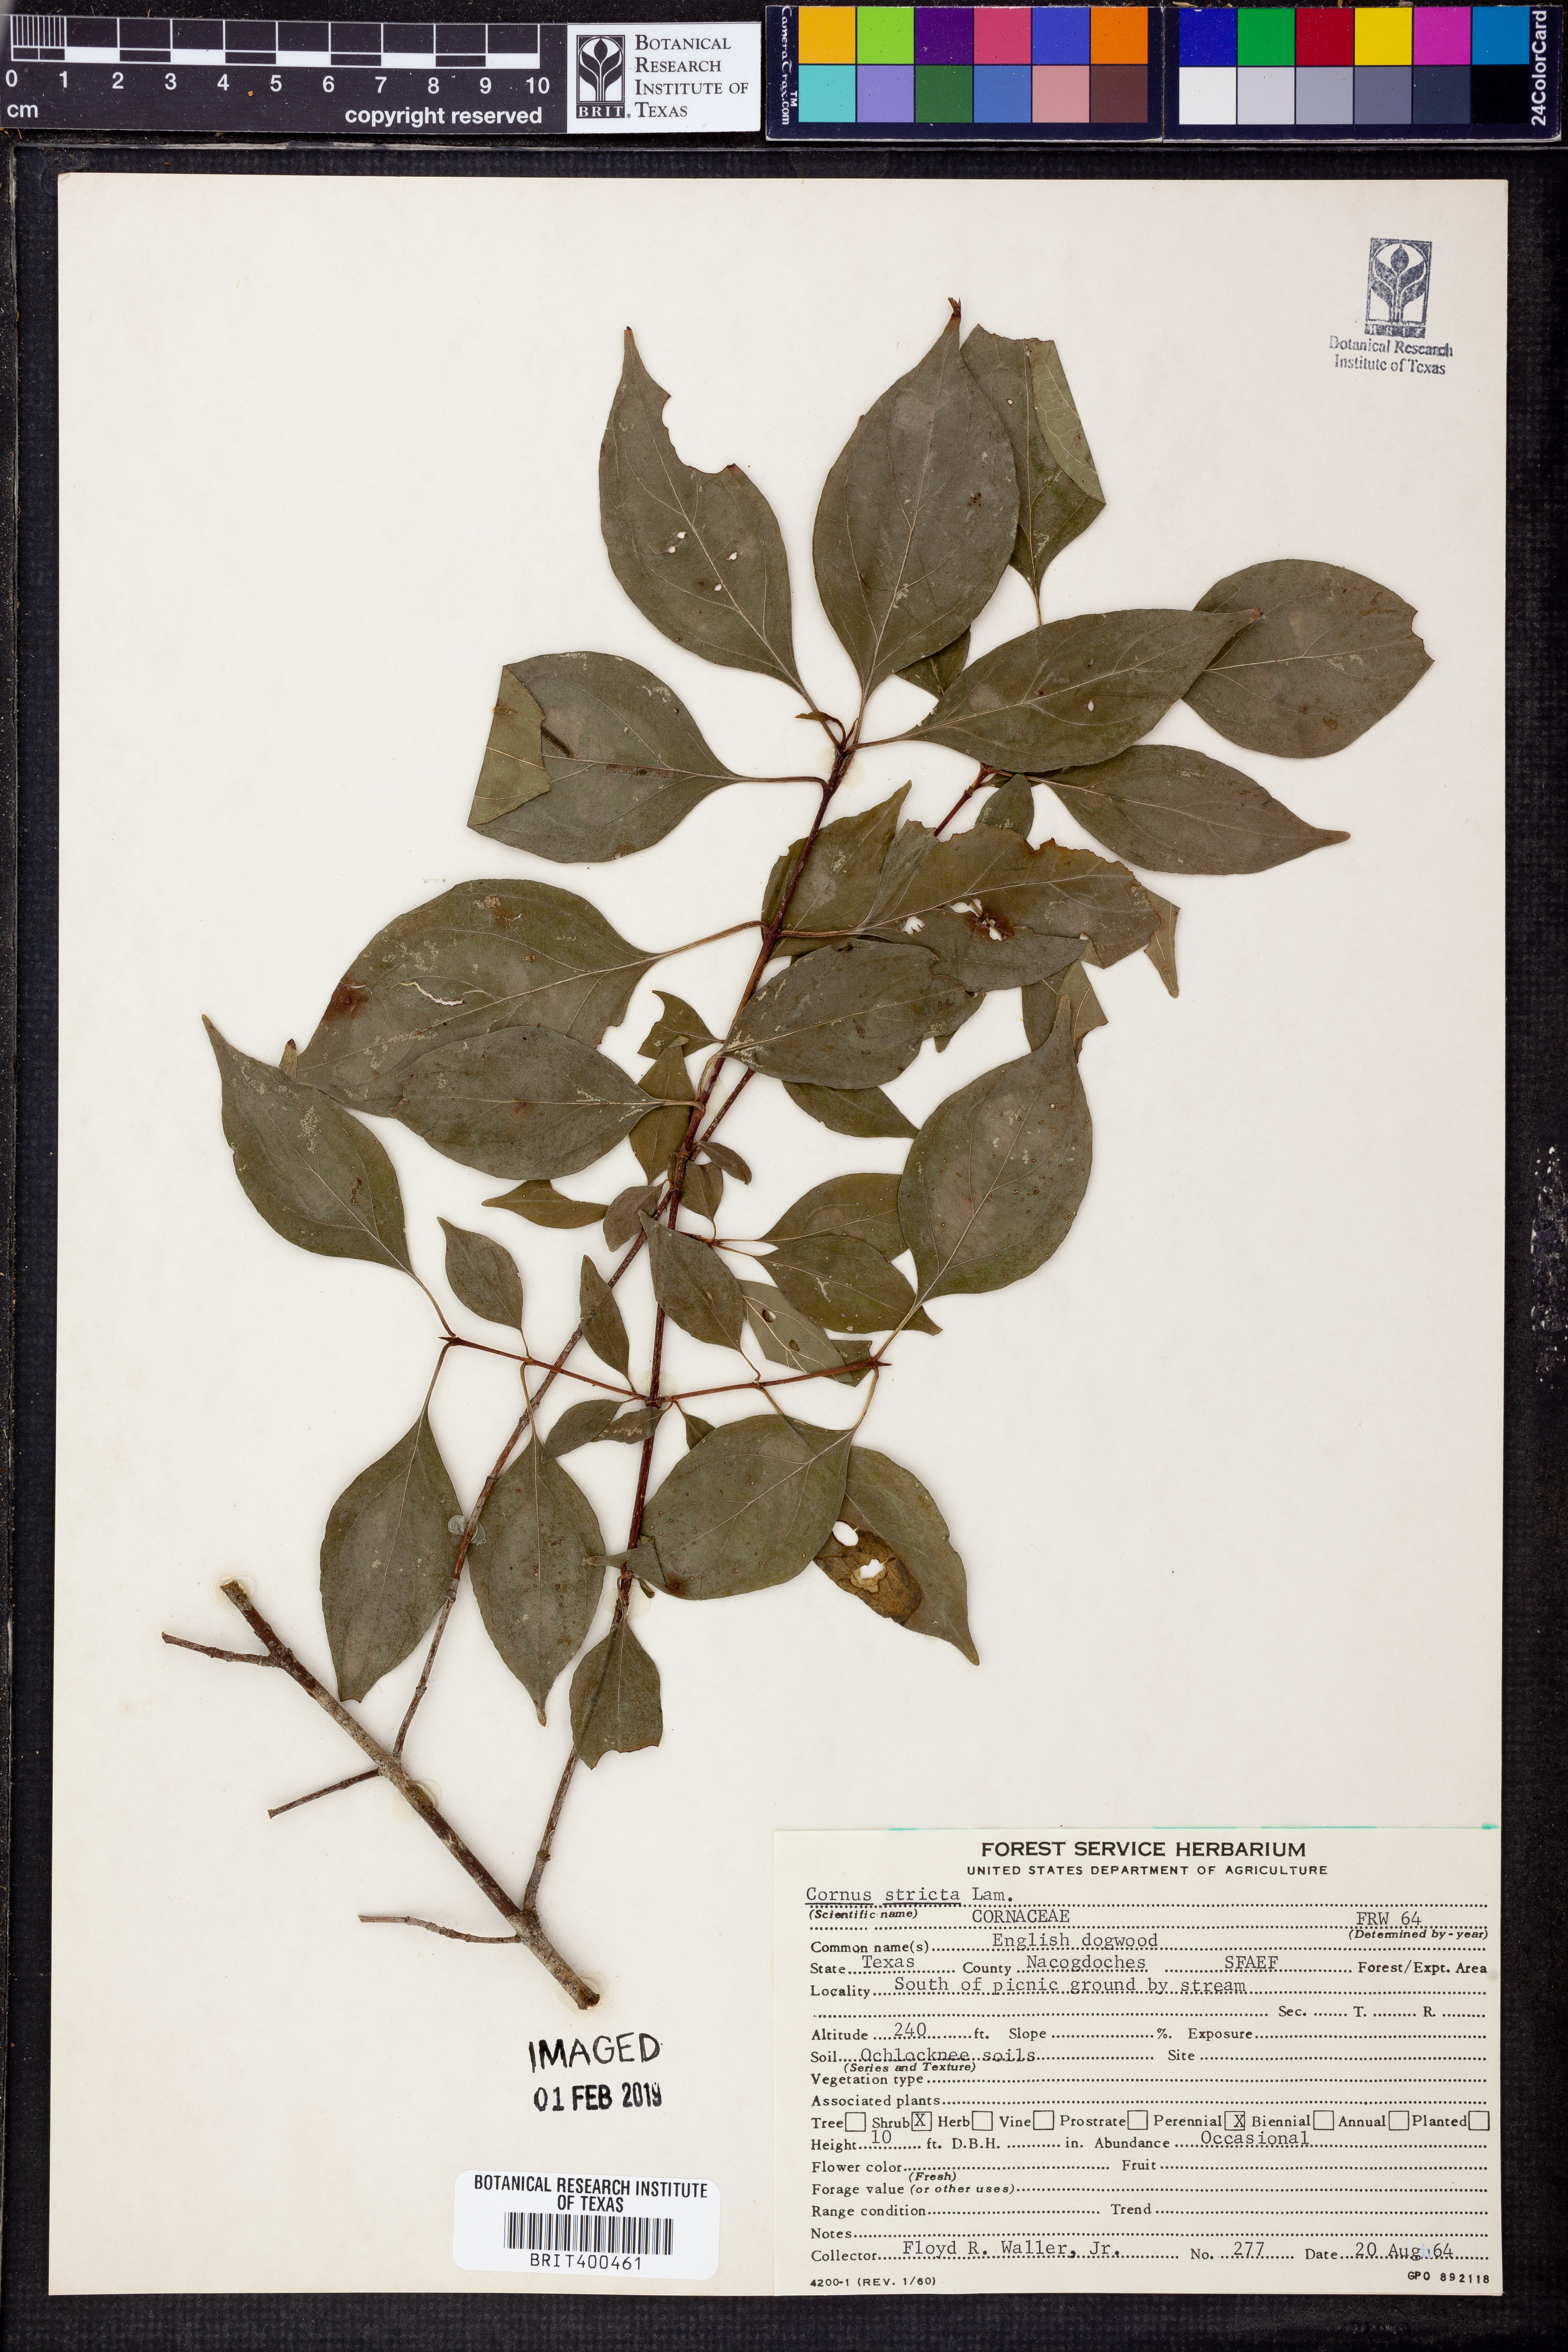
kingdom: Plantae
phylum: Tracheophyta
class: Magnoliopsida
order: Cornales
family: Cornaceae
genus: Cornus
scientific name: Cornus foemina
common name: Swamp dogwood
